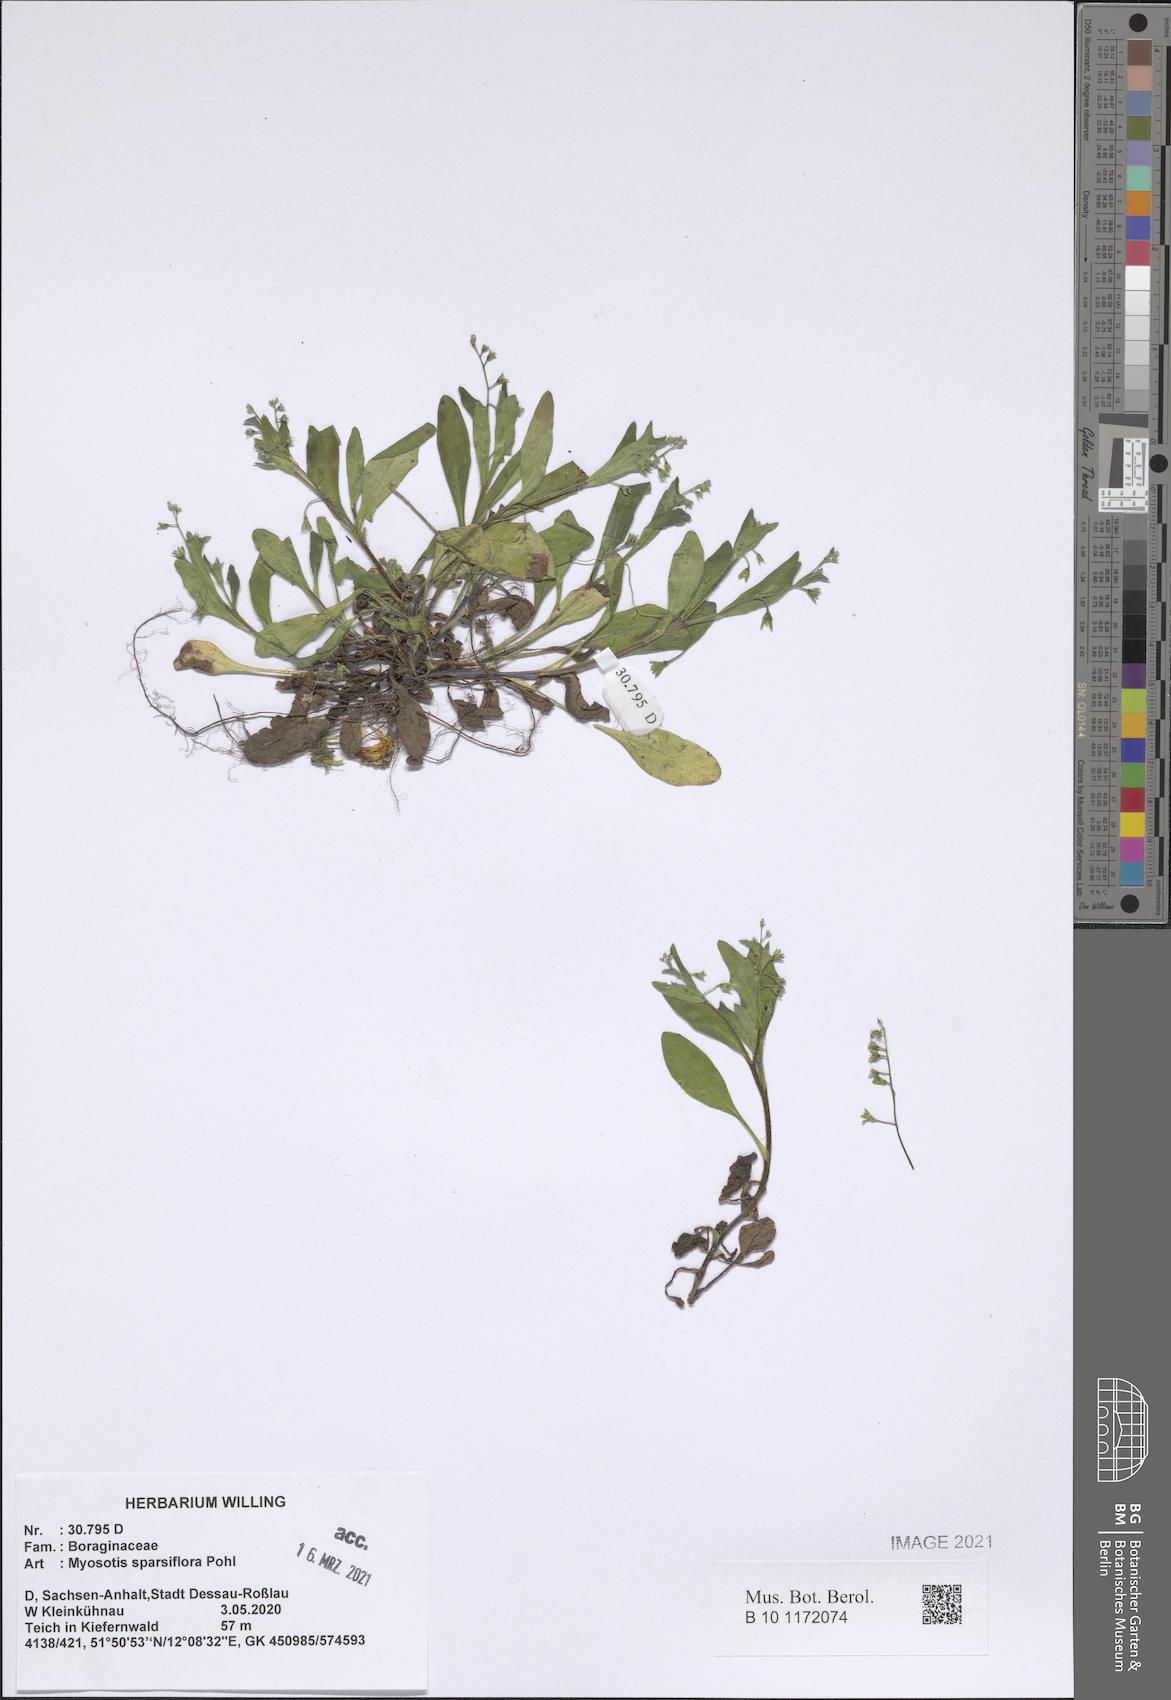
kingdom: Plantae
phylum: Tracheophyta
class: Magnoliopsida
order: Boraginales
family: Boraginaceae
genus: Myosotis
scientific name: Myosotis sparsiflora
